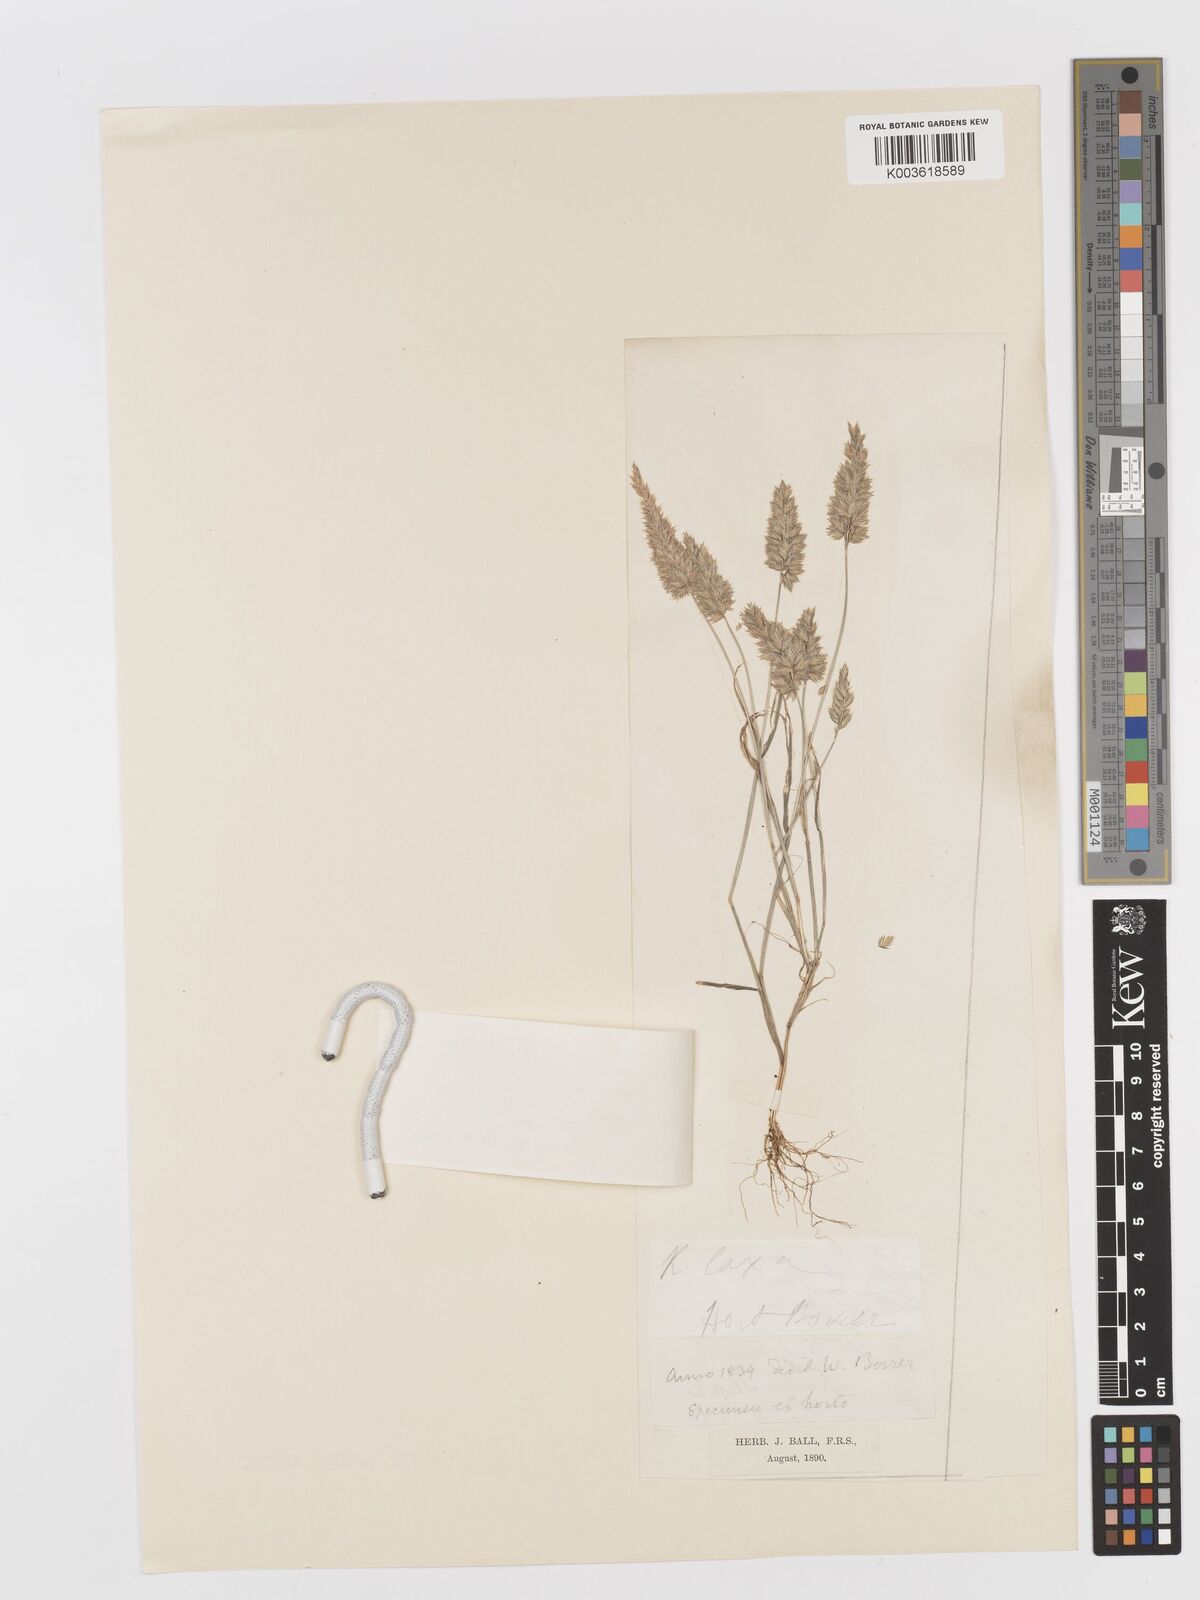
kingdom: Plantae
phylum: Tracheophyta
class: Liliopsida
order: Poales
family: Poaceae
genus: Rostraria
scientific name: Rostraria cristata
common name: Mediterranean hair-grass
